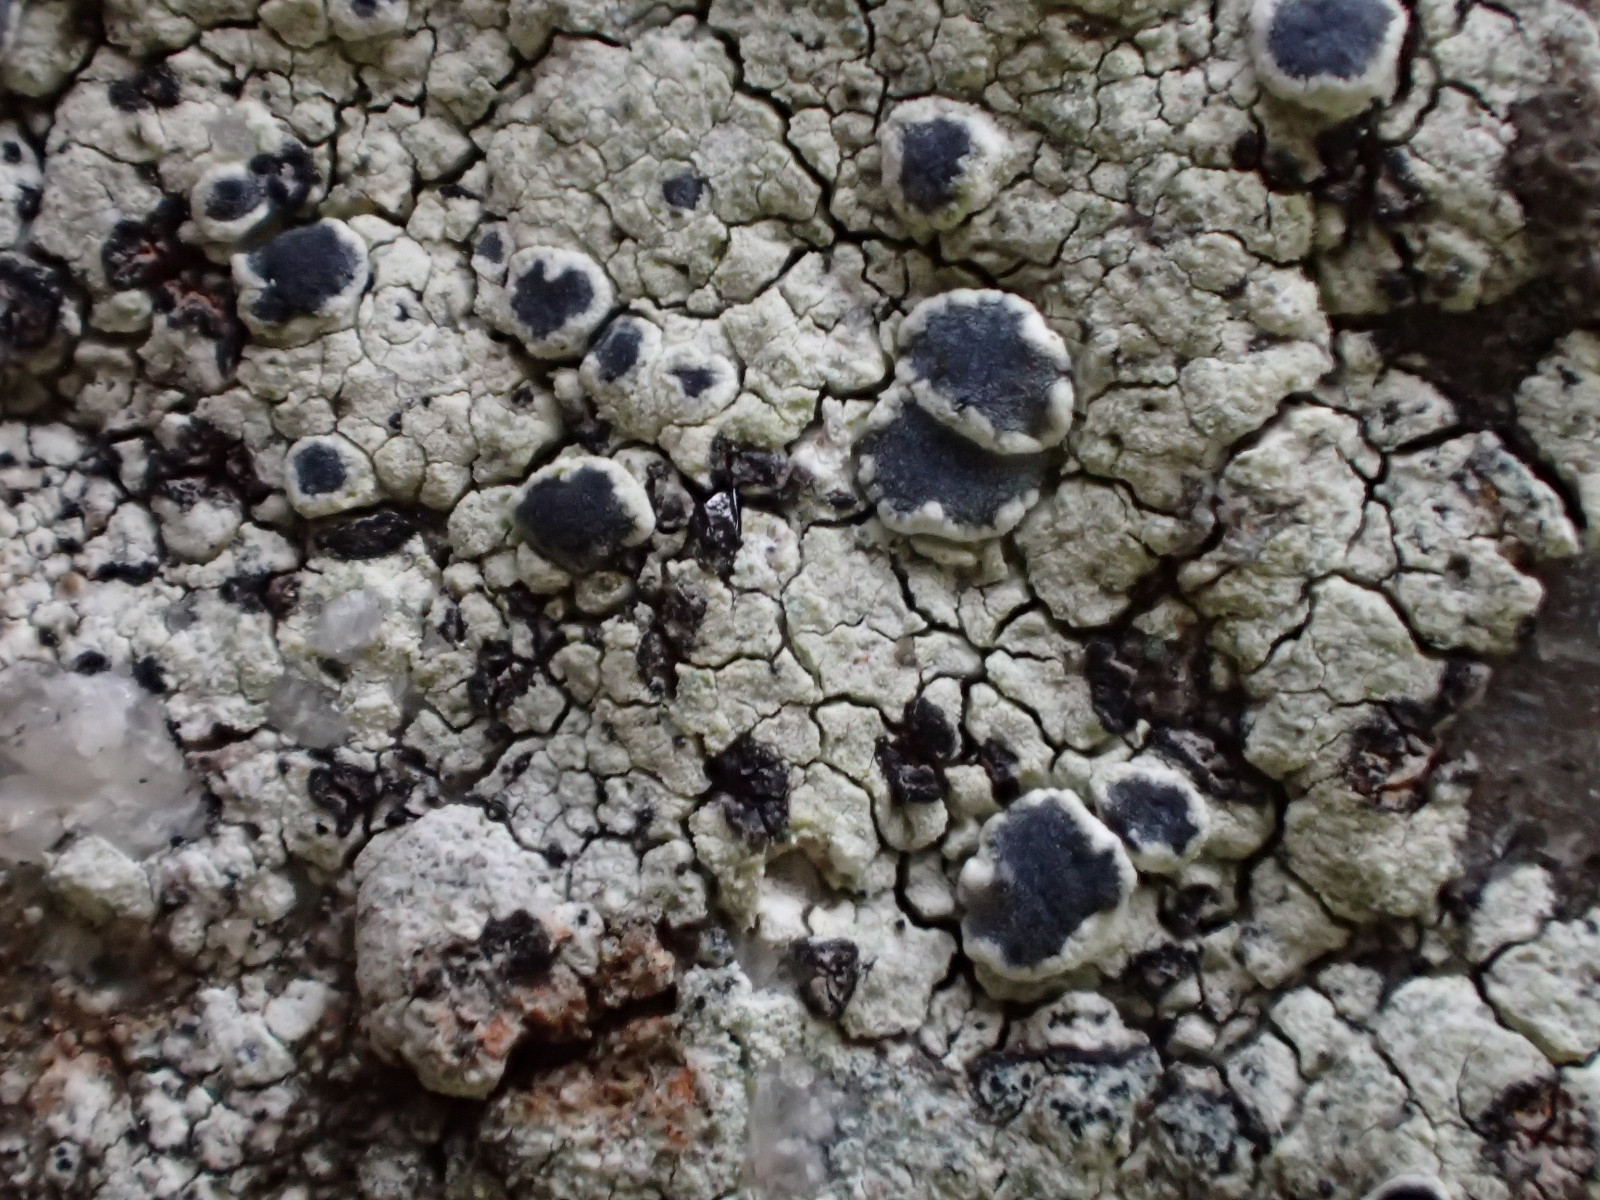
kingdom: Fungi
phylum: Ascomycota
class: Lecanoromycetes
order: Lecanorales
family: Tephromelataceae
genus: Tephromela
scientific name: Tephromela atra
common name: sortfrugtet kantskivelav
